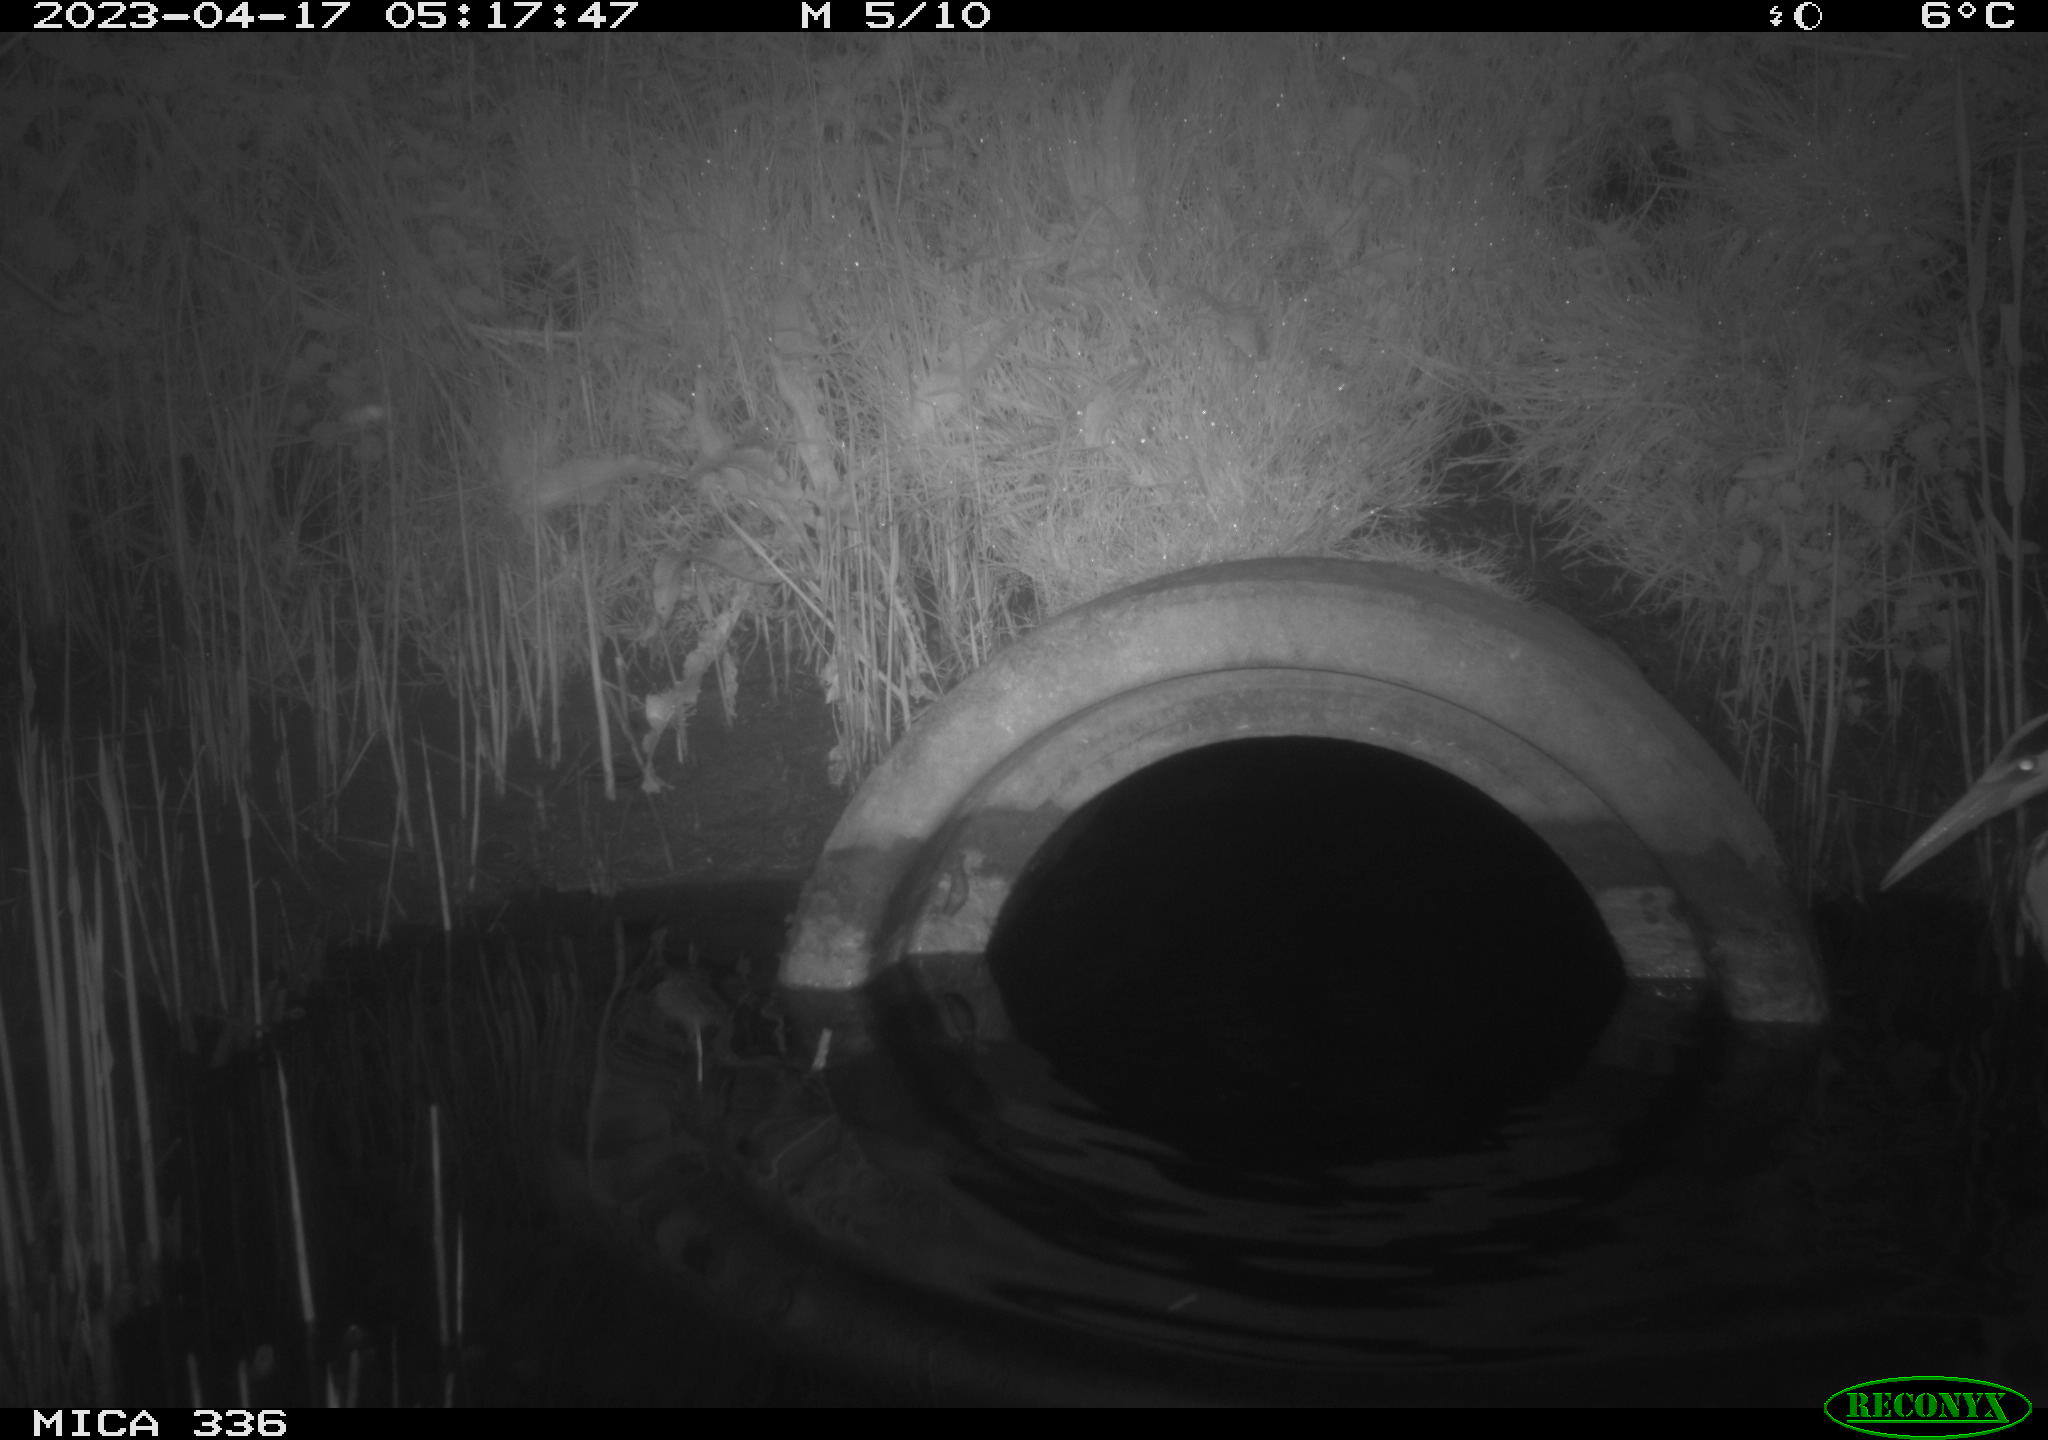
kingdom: Animalia
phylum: Chordata
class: Aves
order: Pelecaniformes
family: Ardeidae
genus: Ardea
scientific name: Ardea cinerea
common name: Grey heron
